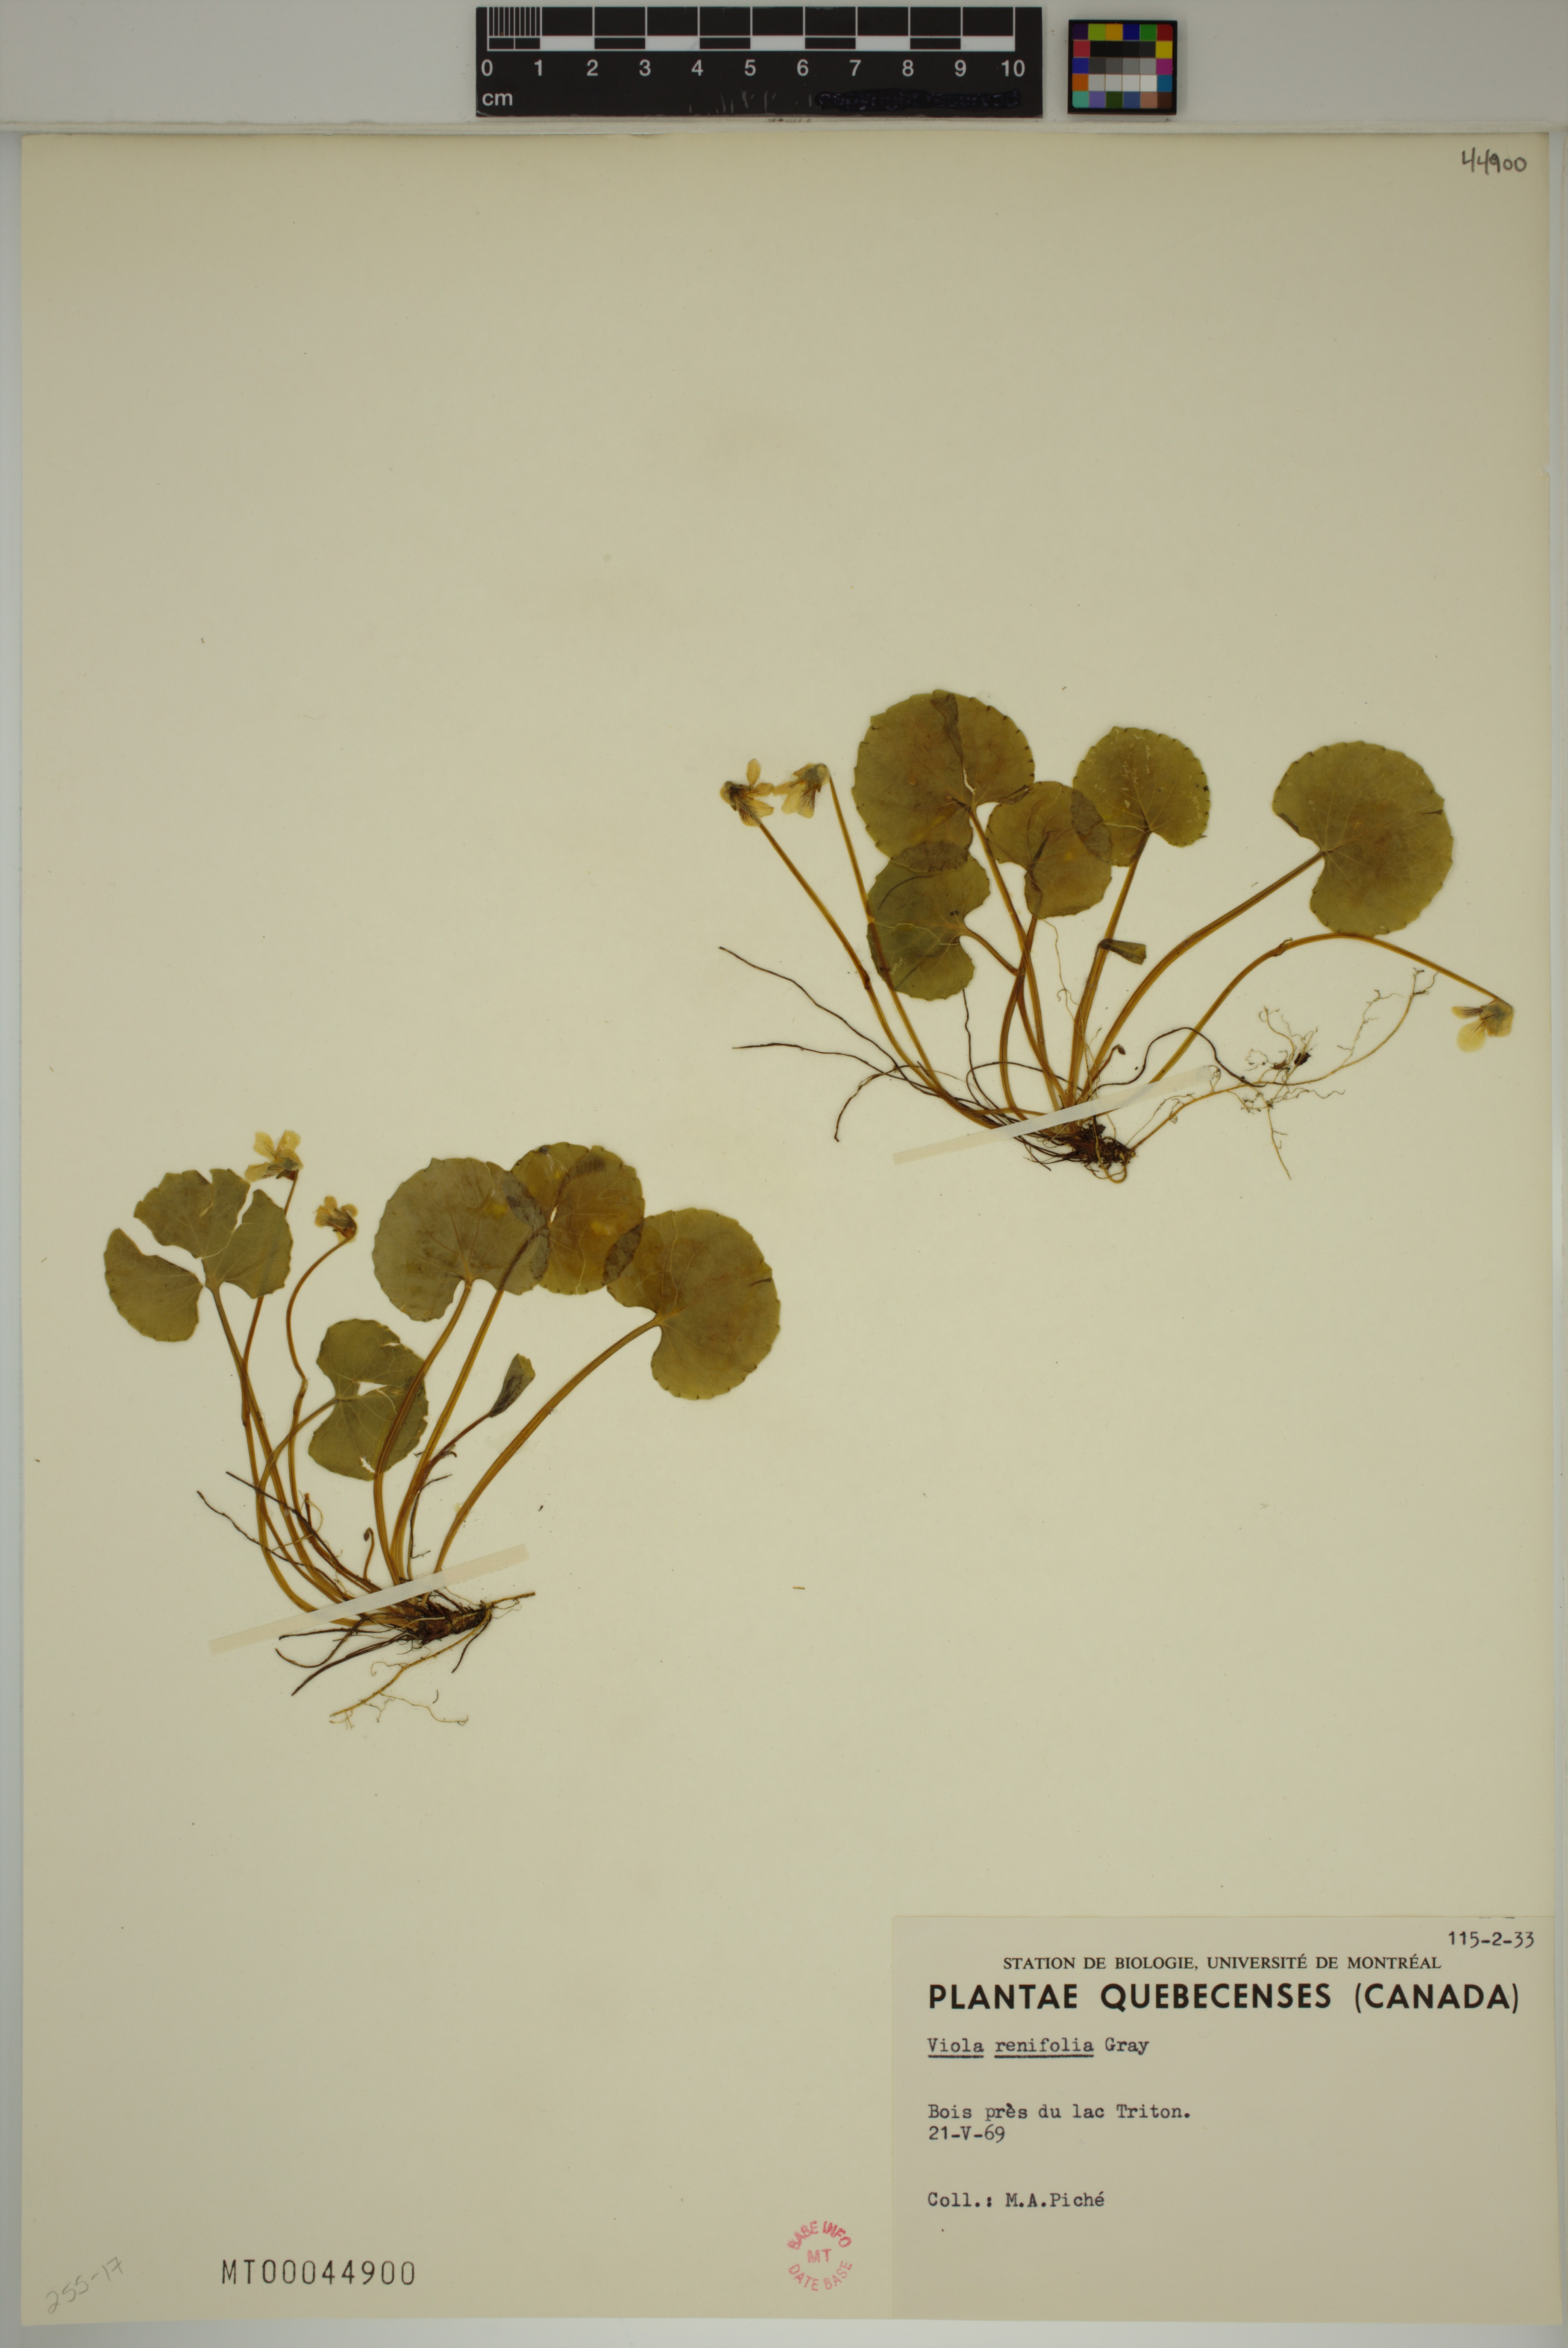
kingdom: Plantae
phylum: Tracheophyta
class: Magnoliopsida
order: Malpighiales
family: Violaceae
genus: Viola
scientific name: Viola renifolia
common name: Kidney-leaf violet
